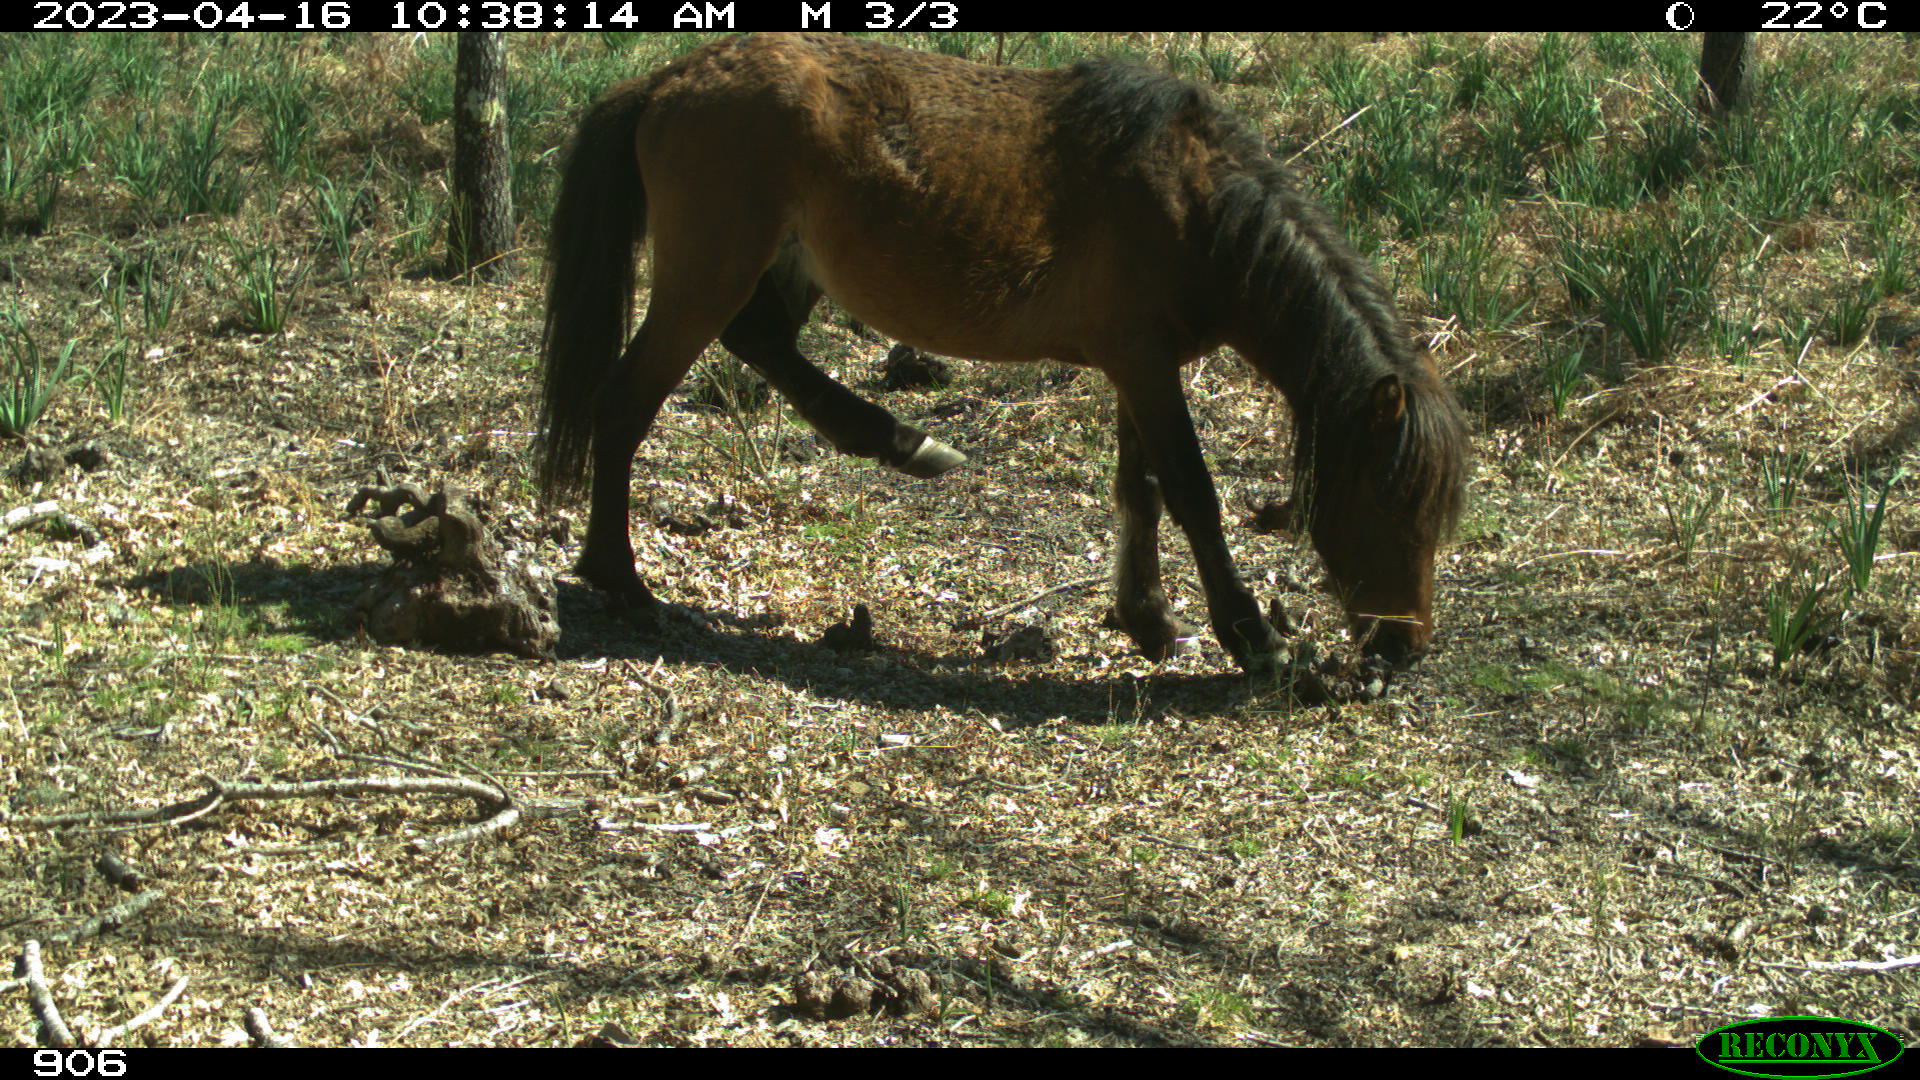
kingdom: Animalia
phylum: Chordata
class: Mammalia
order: Perissodactyla
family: Equidae
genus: Equus
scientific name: Equus caballus
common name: Horse
